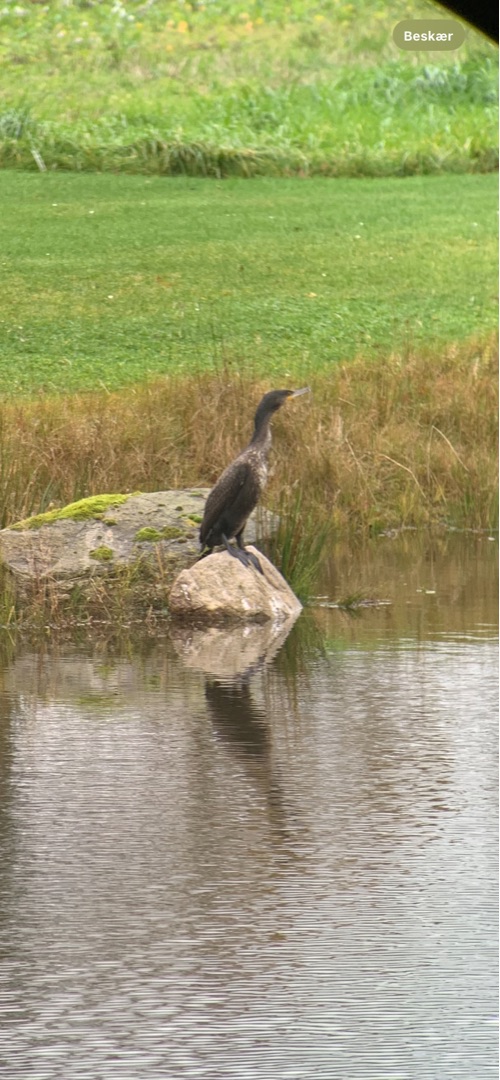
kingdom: Animalia
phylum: Chordata
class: Aves
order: Suliformes
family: Phalacrocoracidae
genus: Phalacrocorax
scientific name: Phalacrocorax carbo
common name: Skarv
